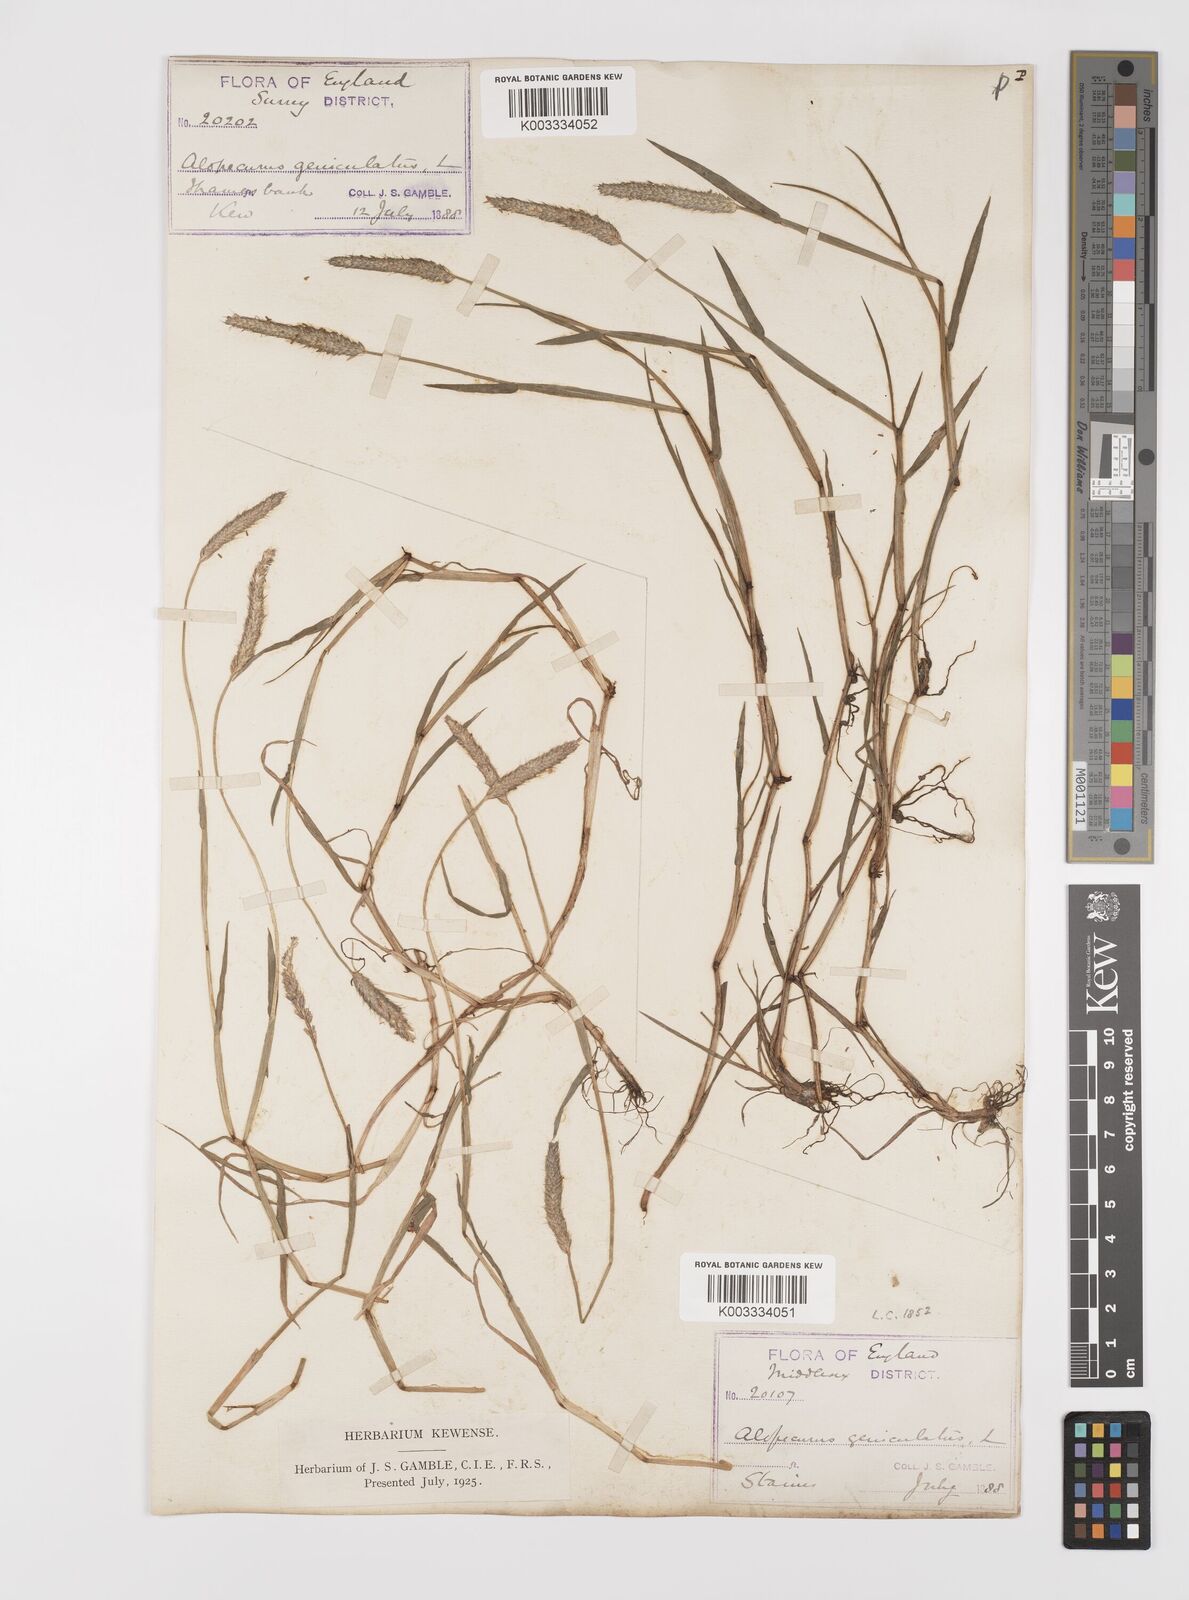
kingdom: Plantae
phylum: Tracheophyta
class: Liliopsida
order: Poales
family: Poaceae
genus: Alopecurus
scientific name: Alopecurus geniculatus
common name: Water foxtail
